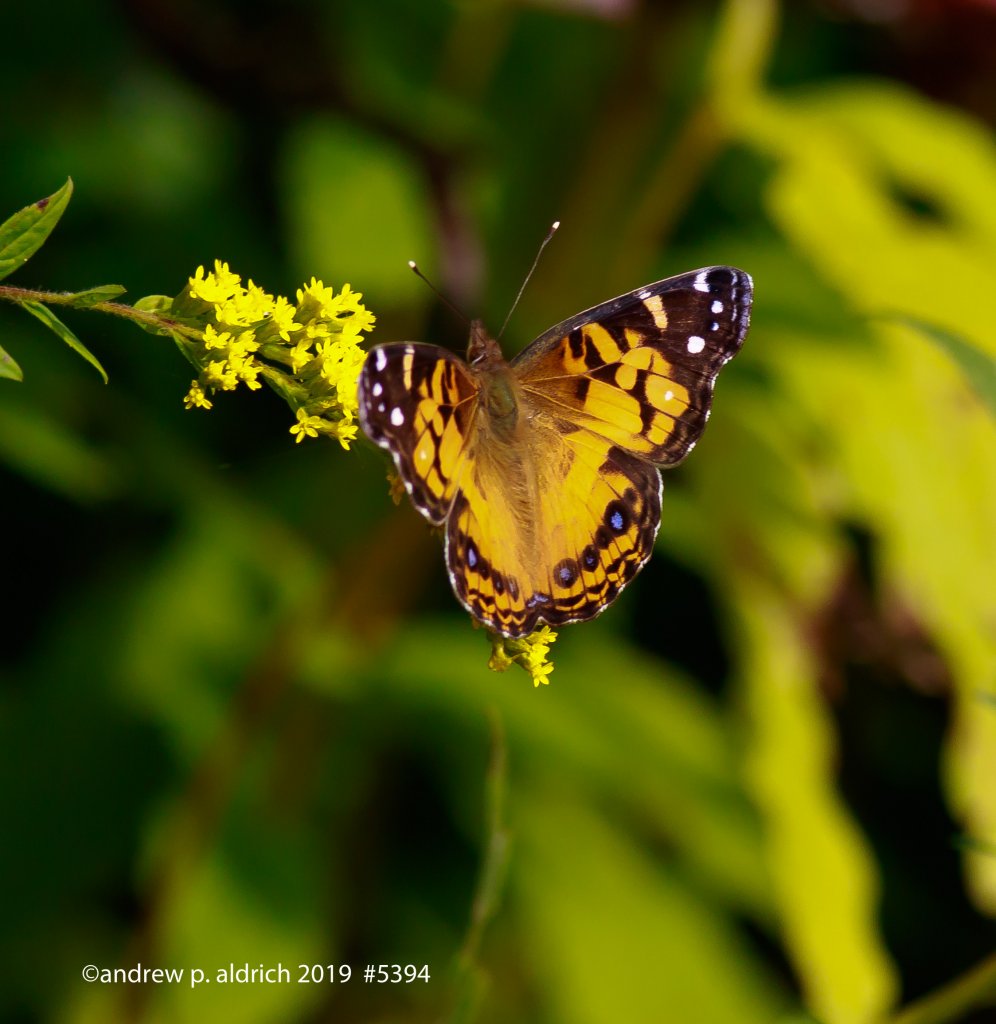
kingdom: Animalia
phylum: Arthropoda
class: Insecta
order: Lepidoptera
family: Nymphalidae
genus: Vanessa
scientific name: Vanessa virginiensis
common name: American Lady
